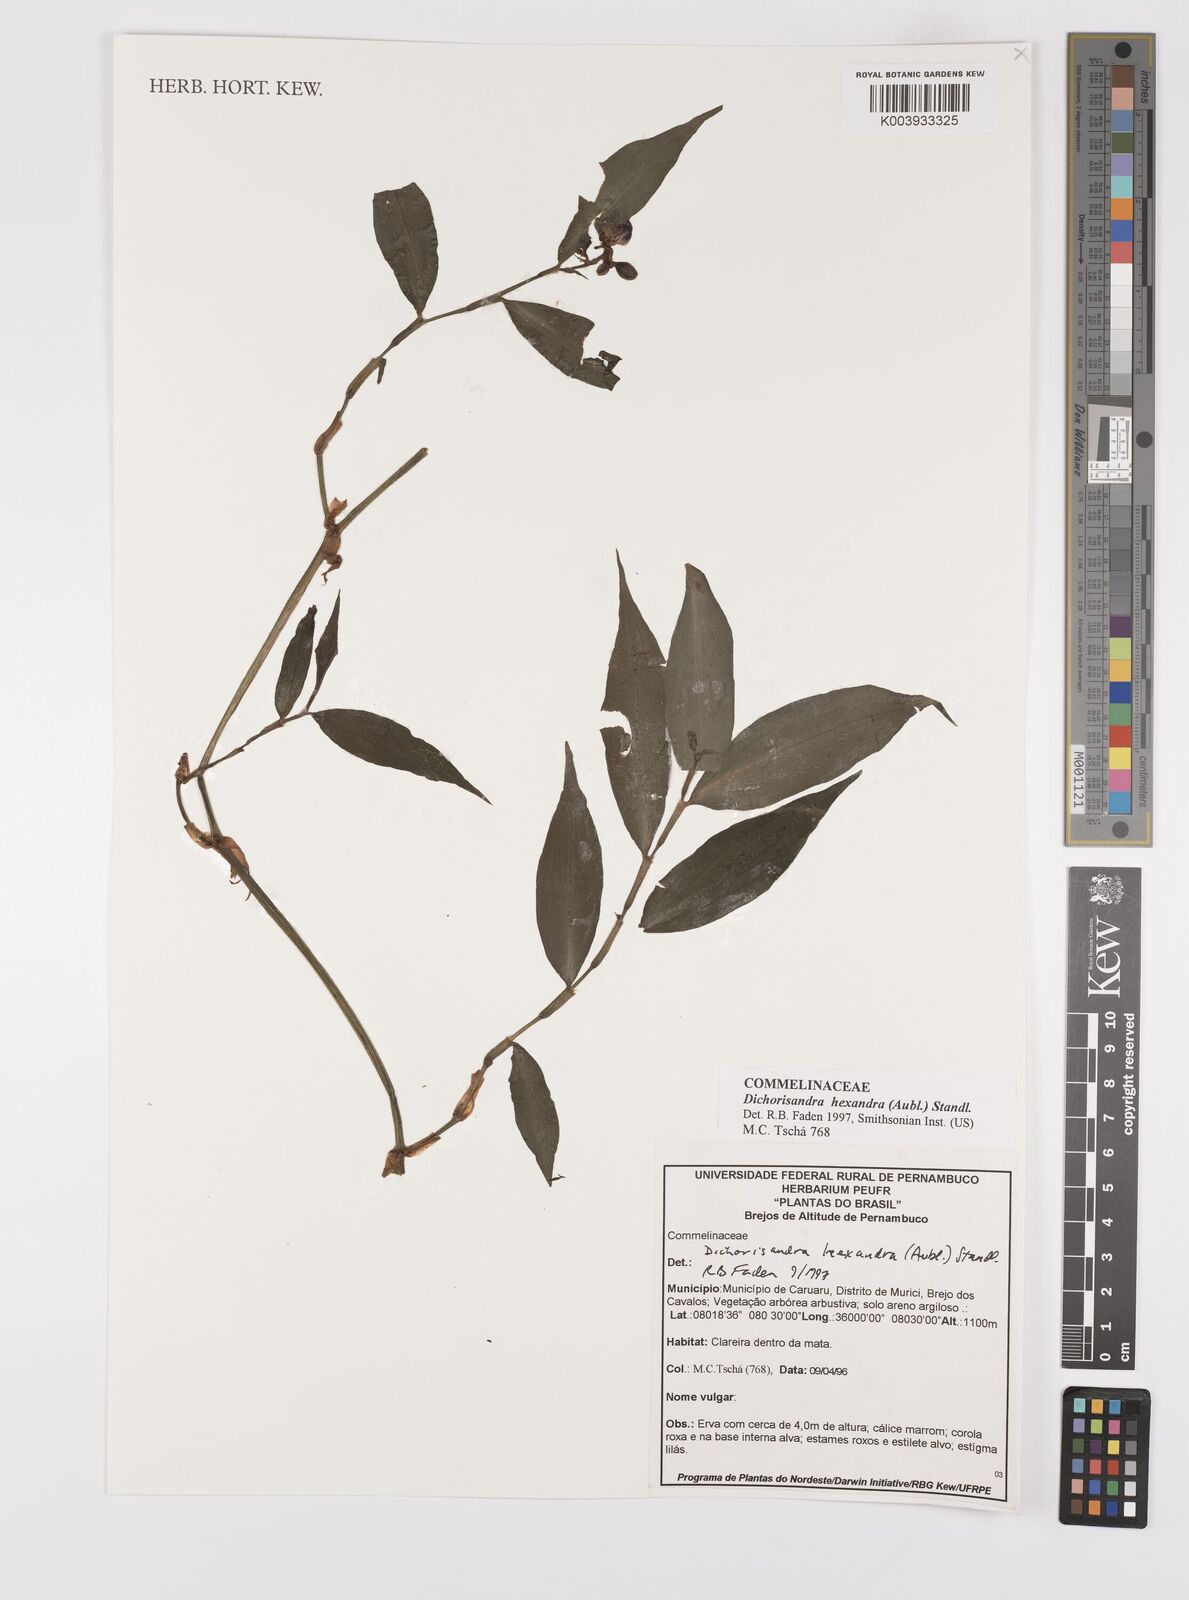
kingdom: Plantae
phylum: Tracheophyta
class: Liliopsida
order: Commelinales
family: Commelinaceae
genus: Dichorisandra
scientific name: Dichorisandra hexandra
